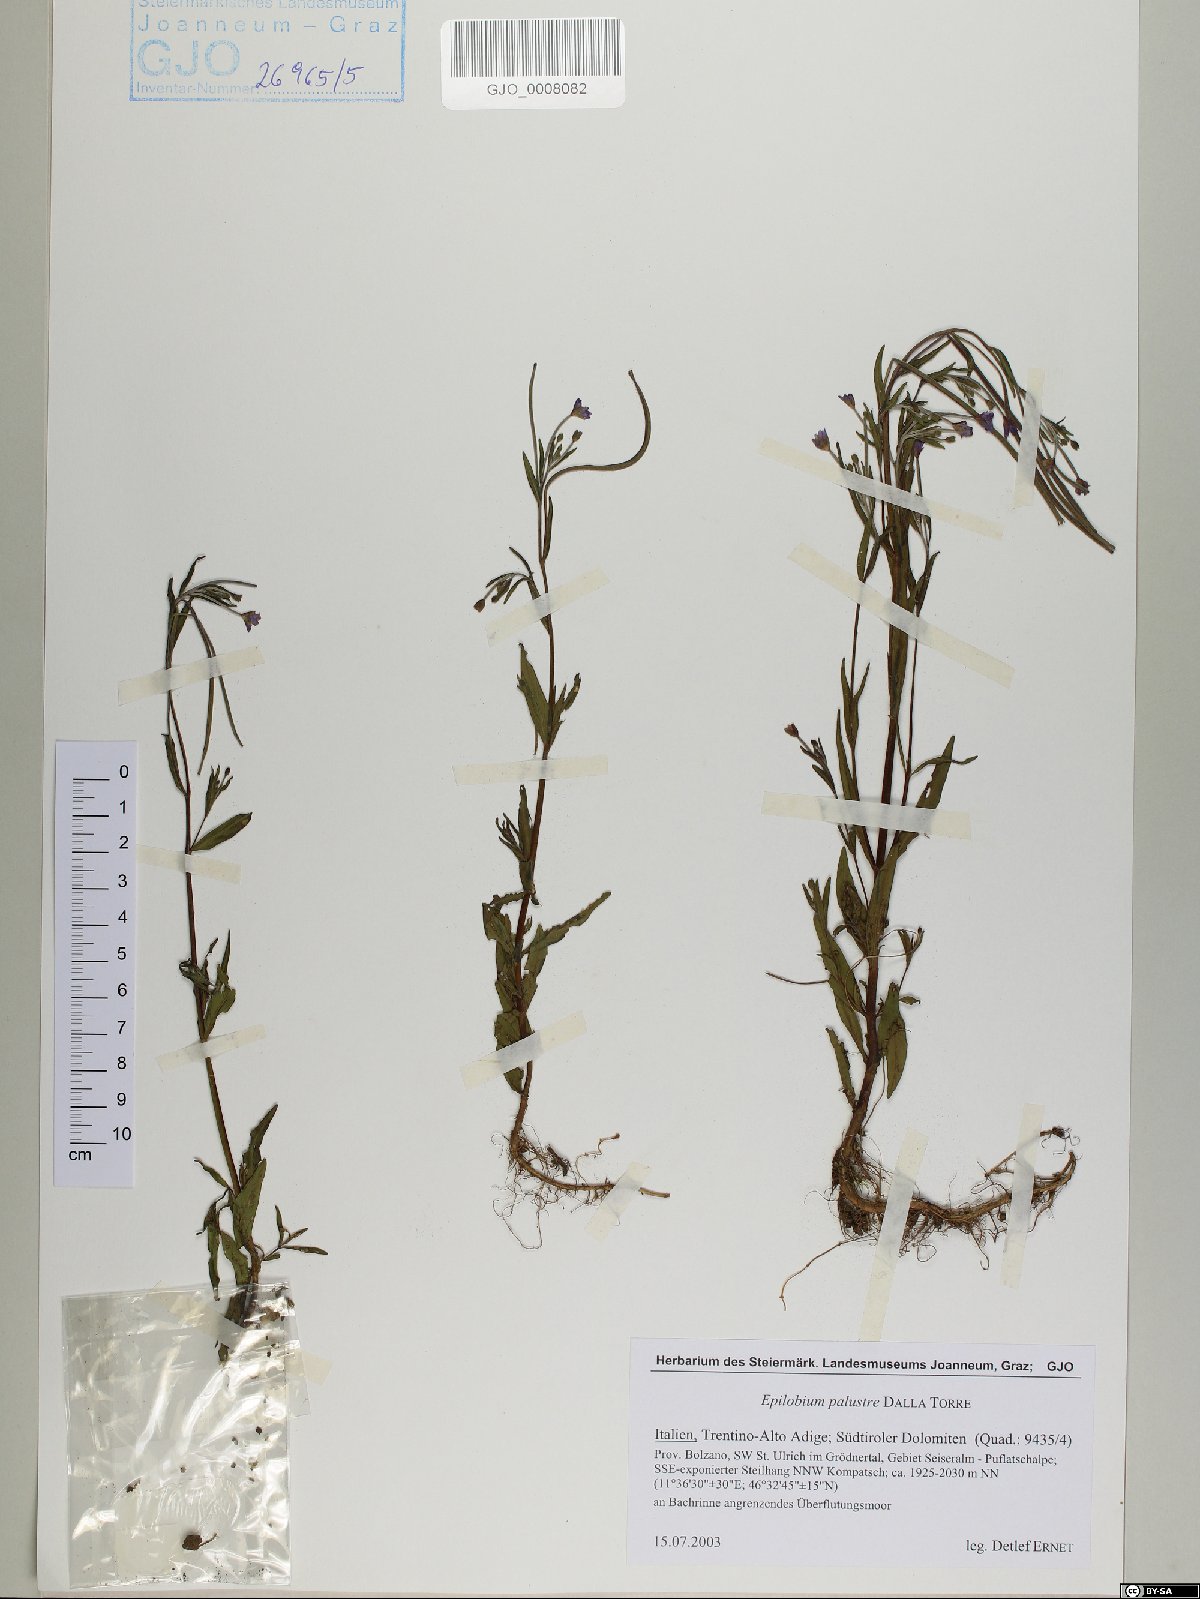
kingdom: Plantae
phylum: Tracheophyta
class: Magnoliopsida
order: Myrtales
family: Onagraceae
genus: Epilobium
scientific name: Epilobium palustre
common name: Marsh willowherb
